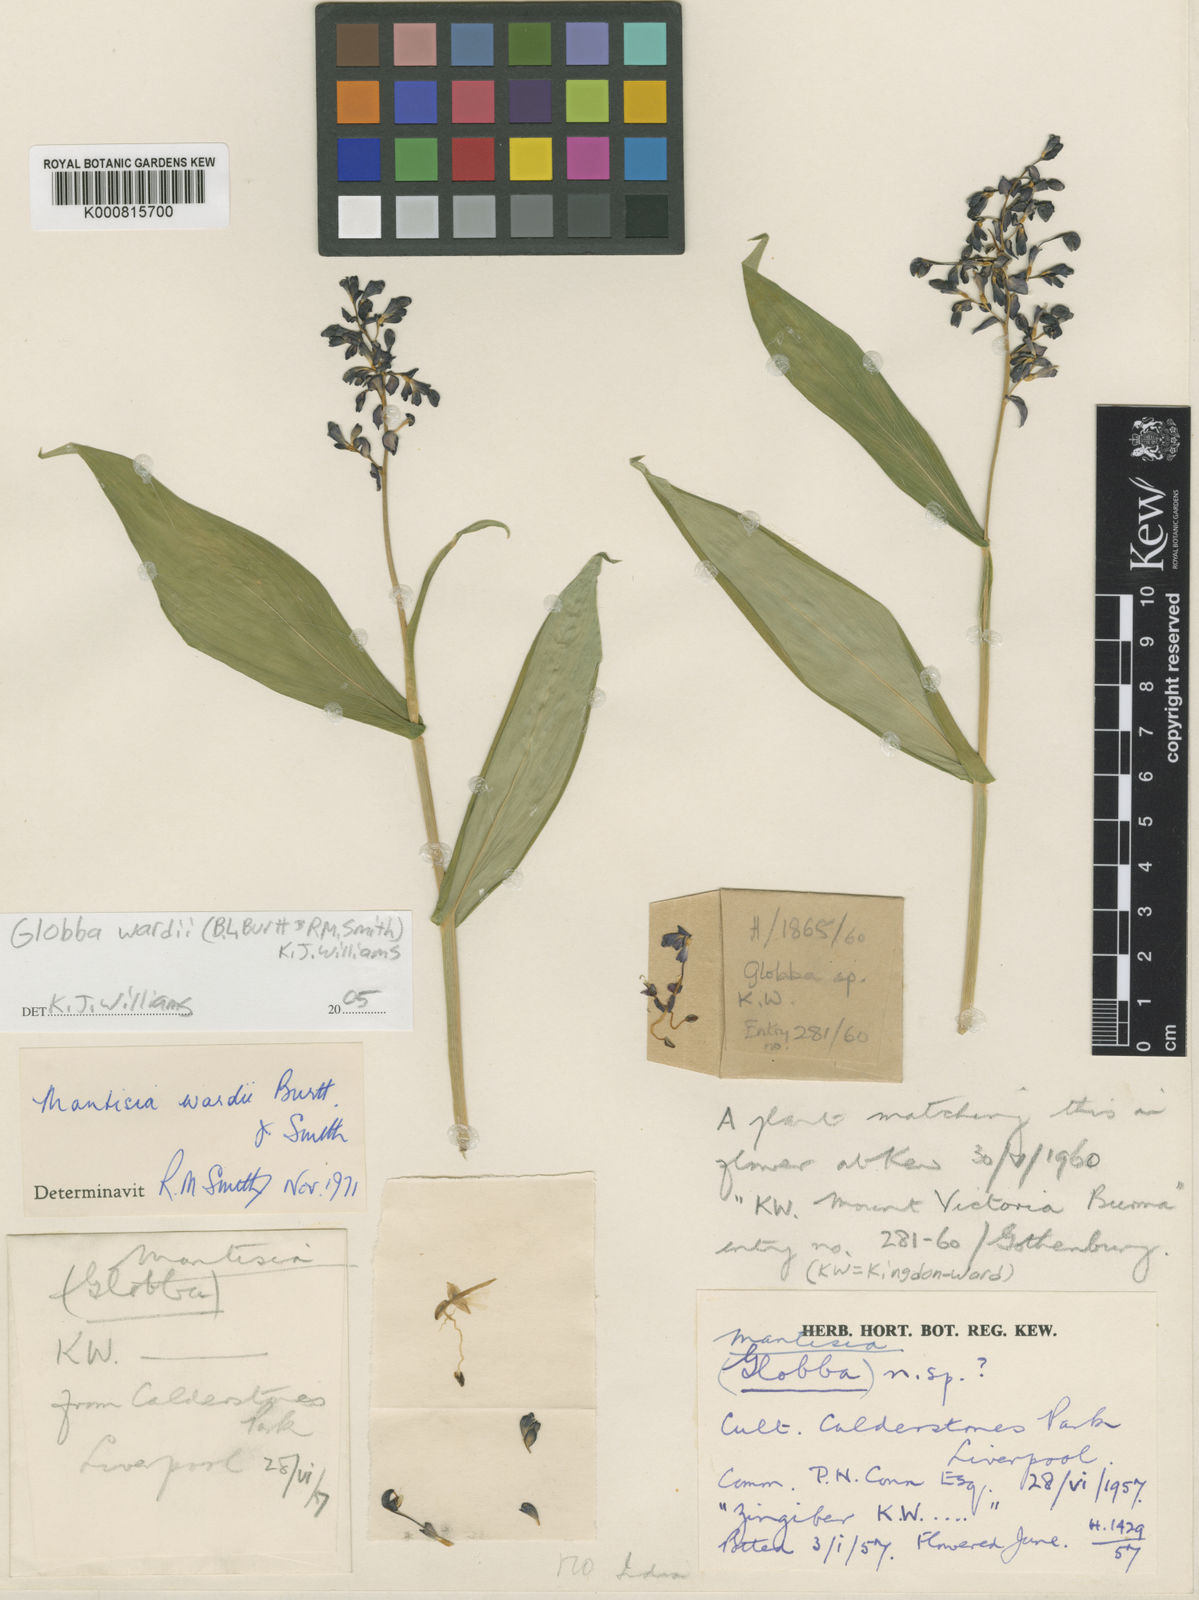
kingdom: Plantae
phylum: Tracheophyta
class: Liliopsida
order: Zingiberales
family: Zingiberaceae
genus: Globba
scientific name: Globba wardii
